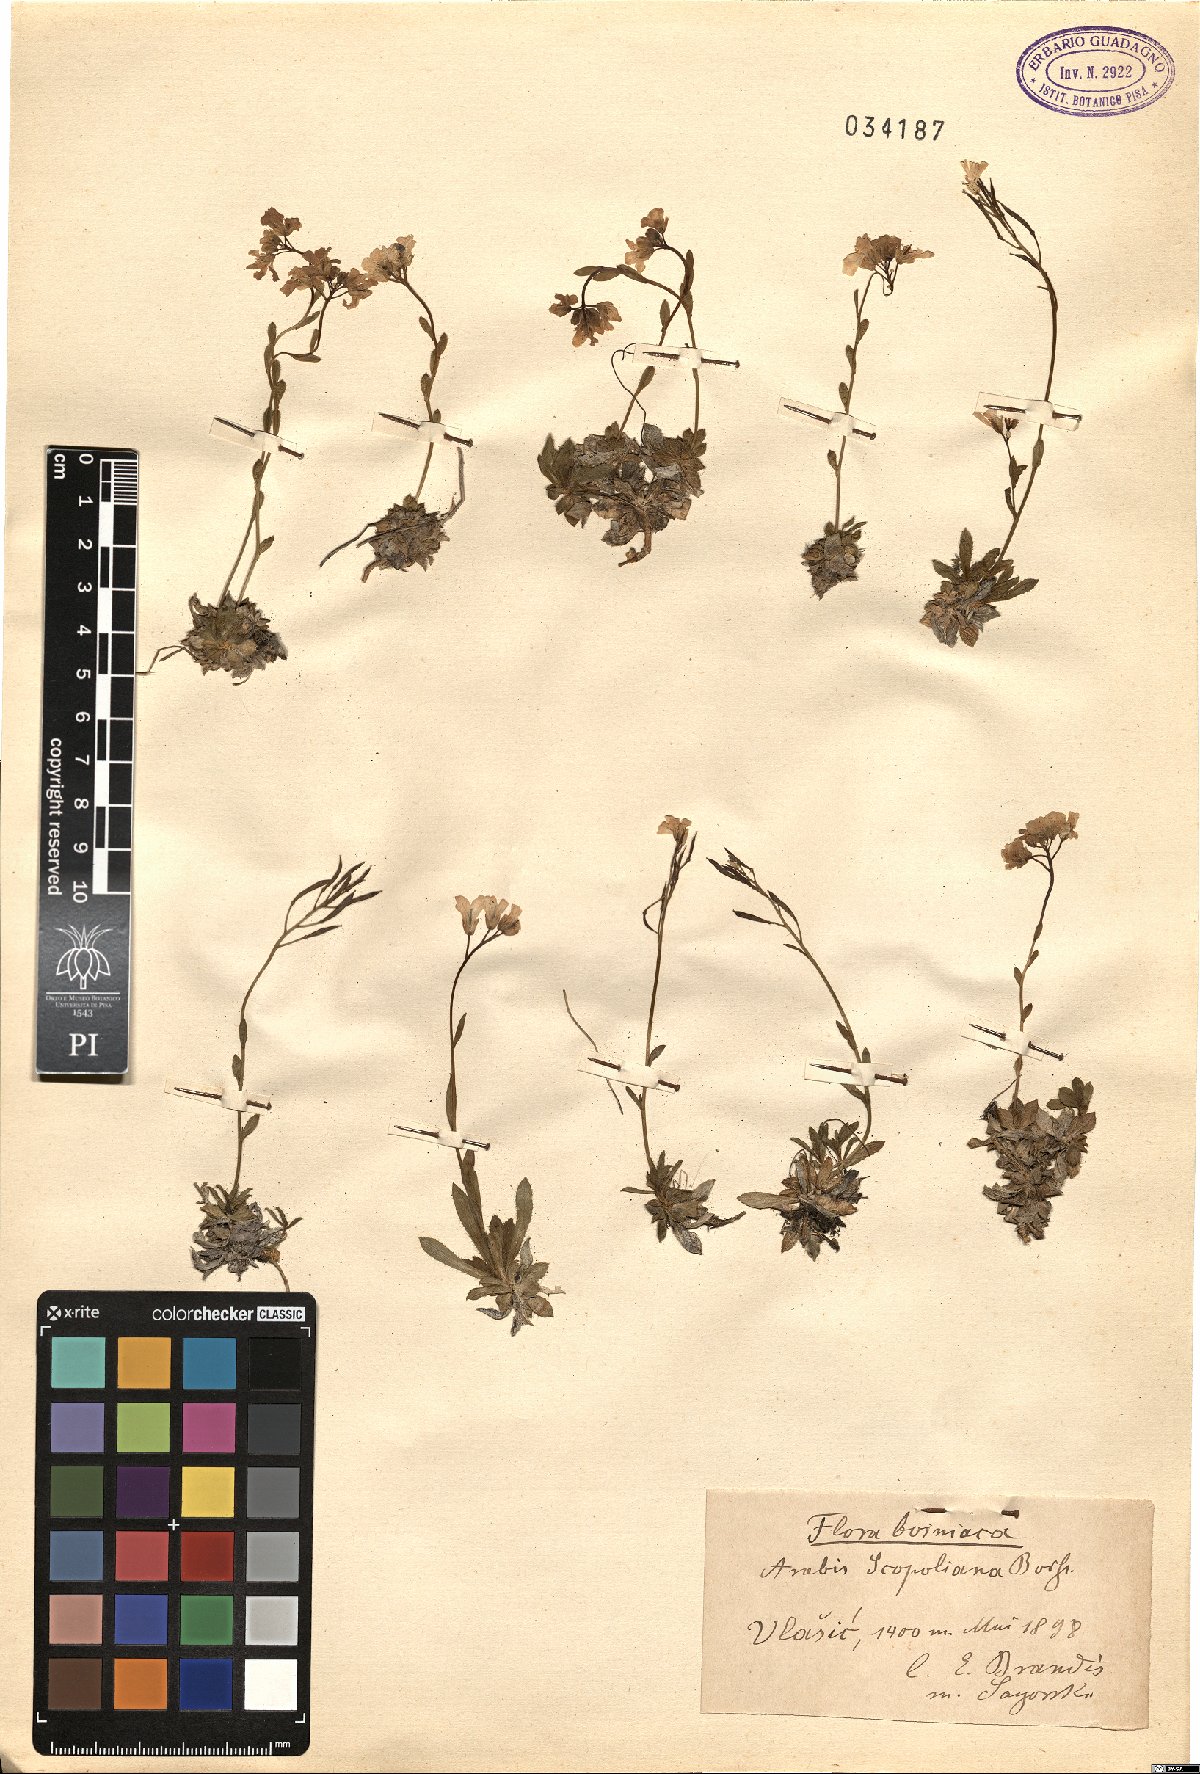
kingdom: Plantae
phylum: Tracheophyta
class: Magnoliopsida
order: Brassicales
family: Brassicaceae
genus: Arabis
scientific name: Arabis scopoliana
